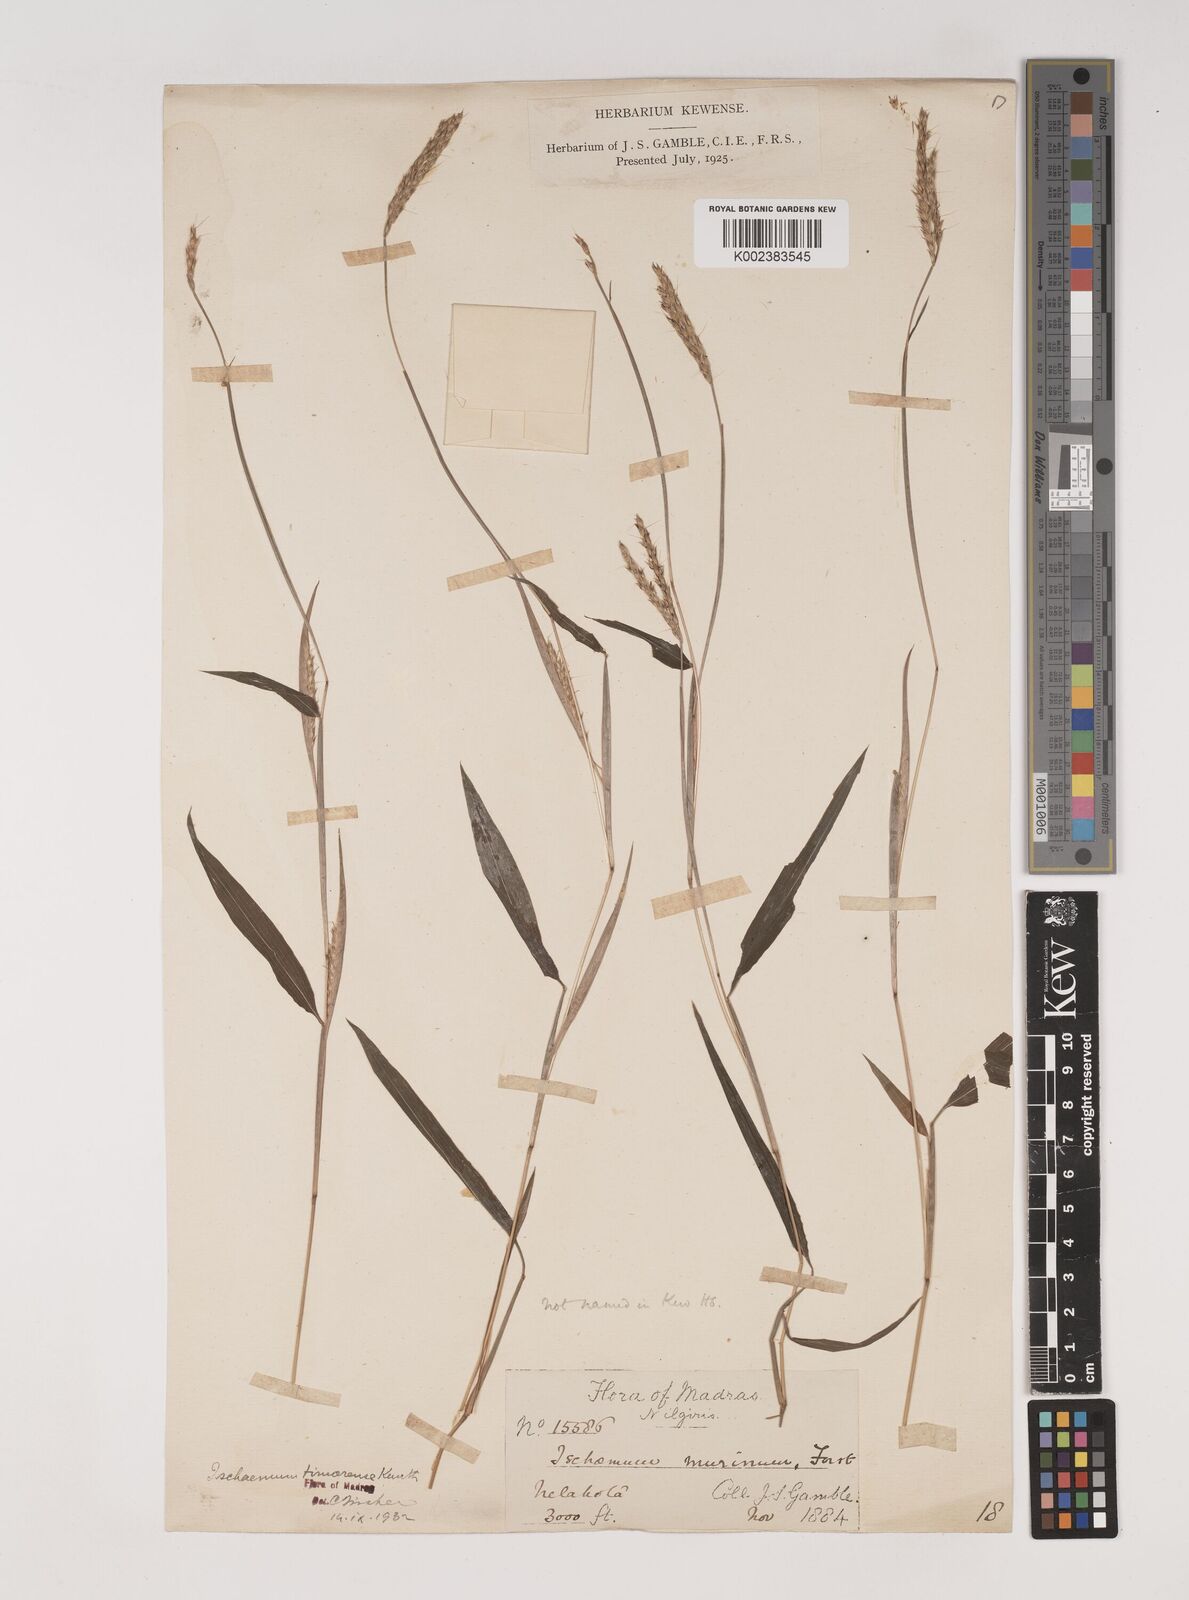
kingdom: Plantae
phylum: Tracheophyta
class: Liliopsida
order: Poales
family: Poaceae
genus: Ischaemum
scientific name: Ischaemum timorense
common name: Stalkleaf murainagrass
